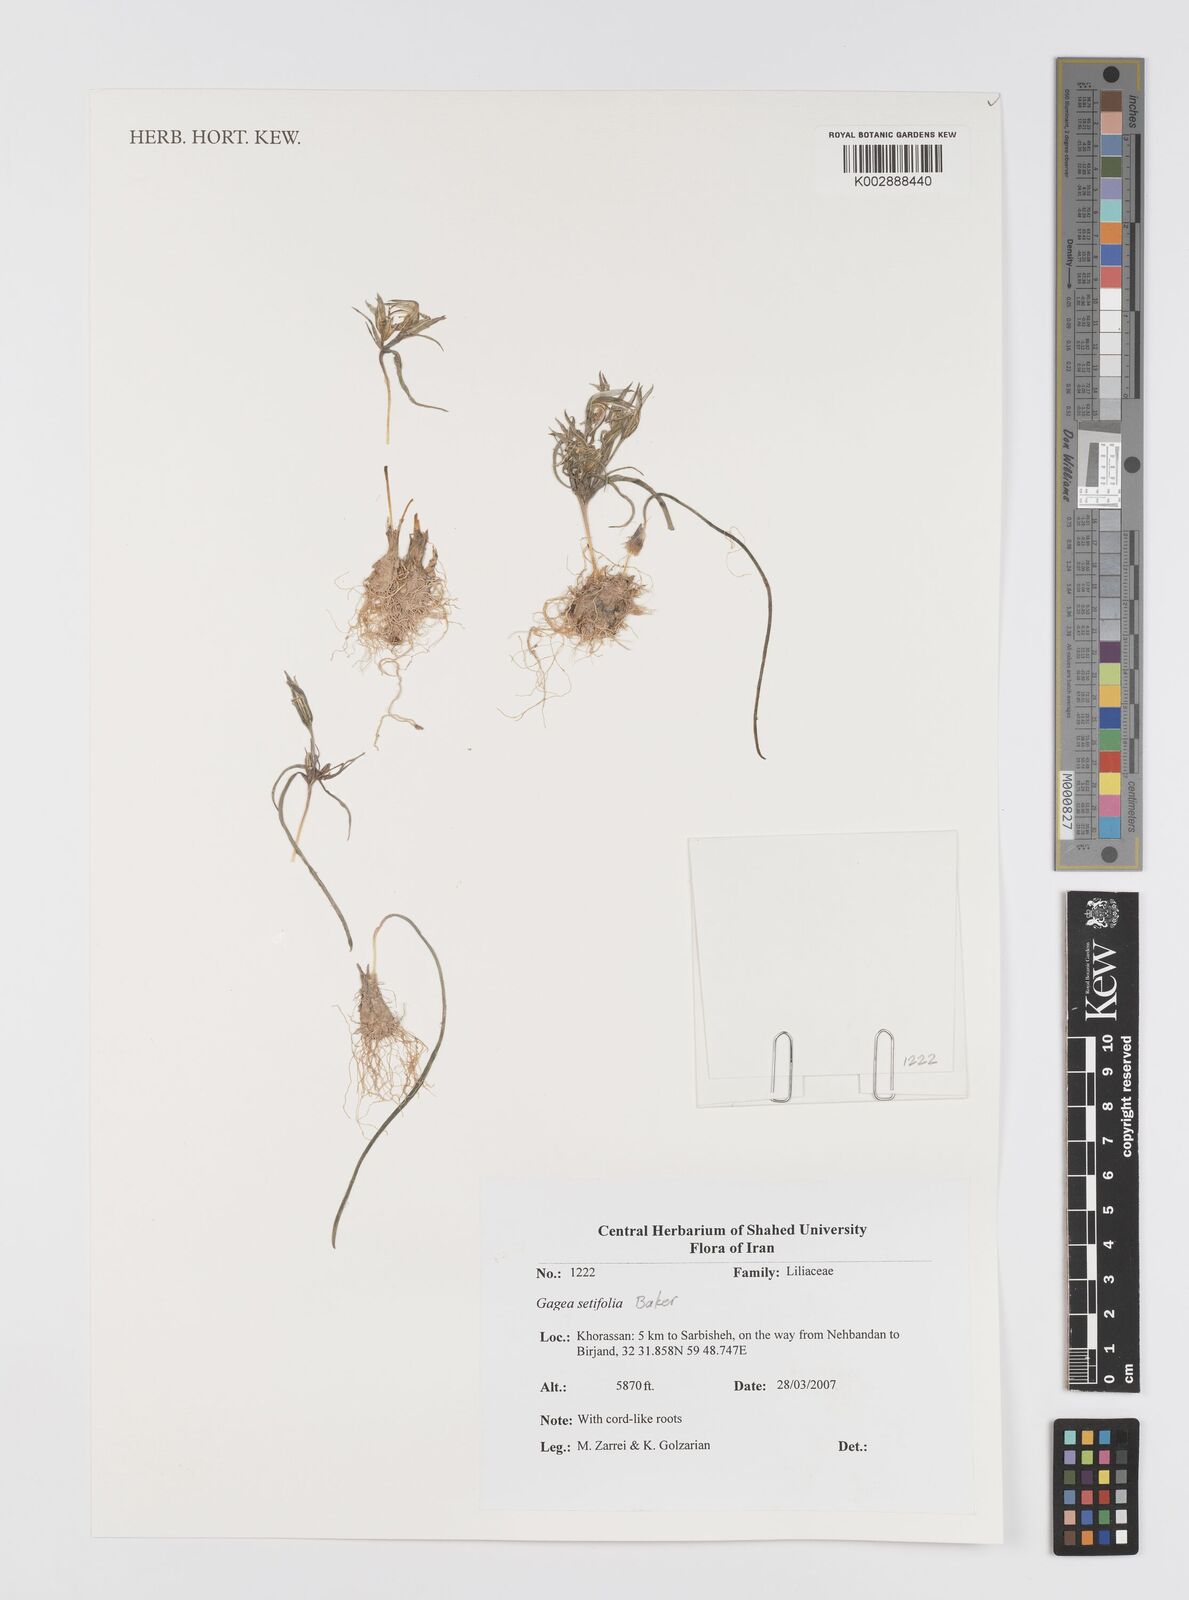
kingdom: Plantae
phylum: Tracheophyta
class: Liliopsida
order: Liliales
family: Liliaceae
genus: Gagea
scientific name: Gagea setifolia
